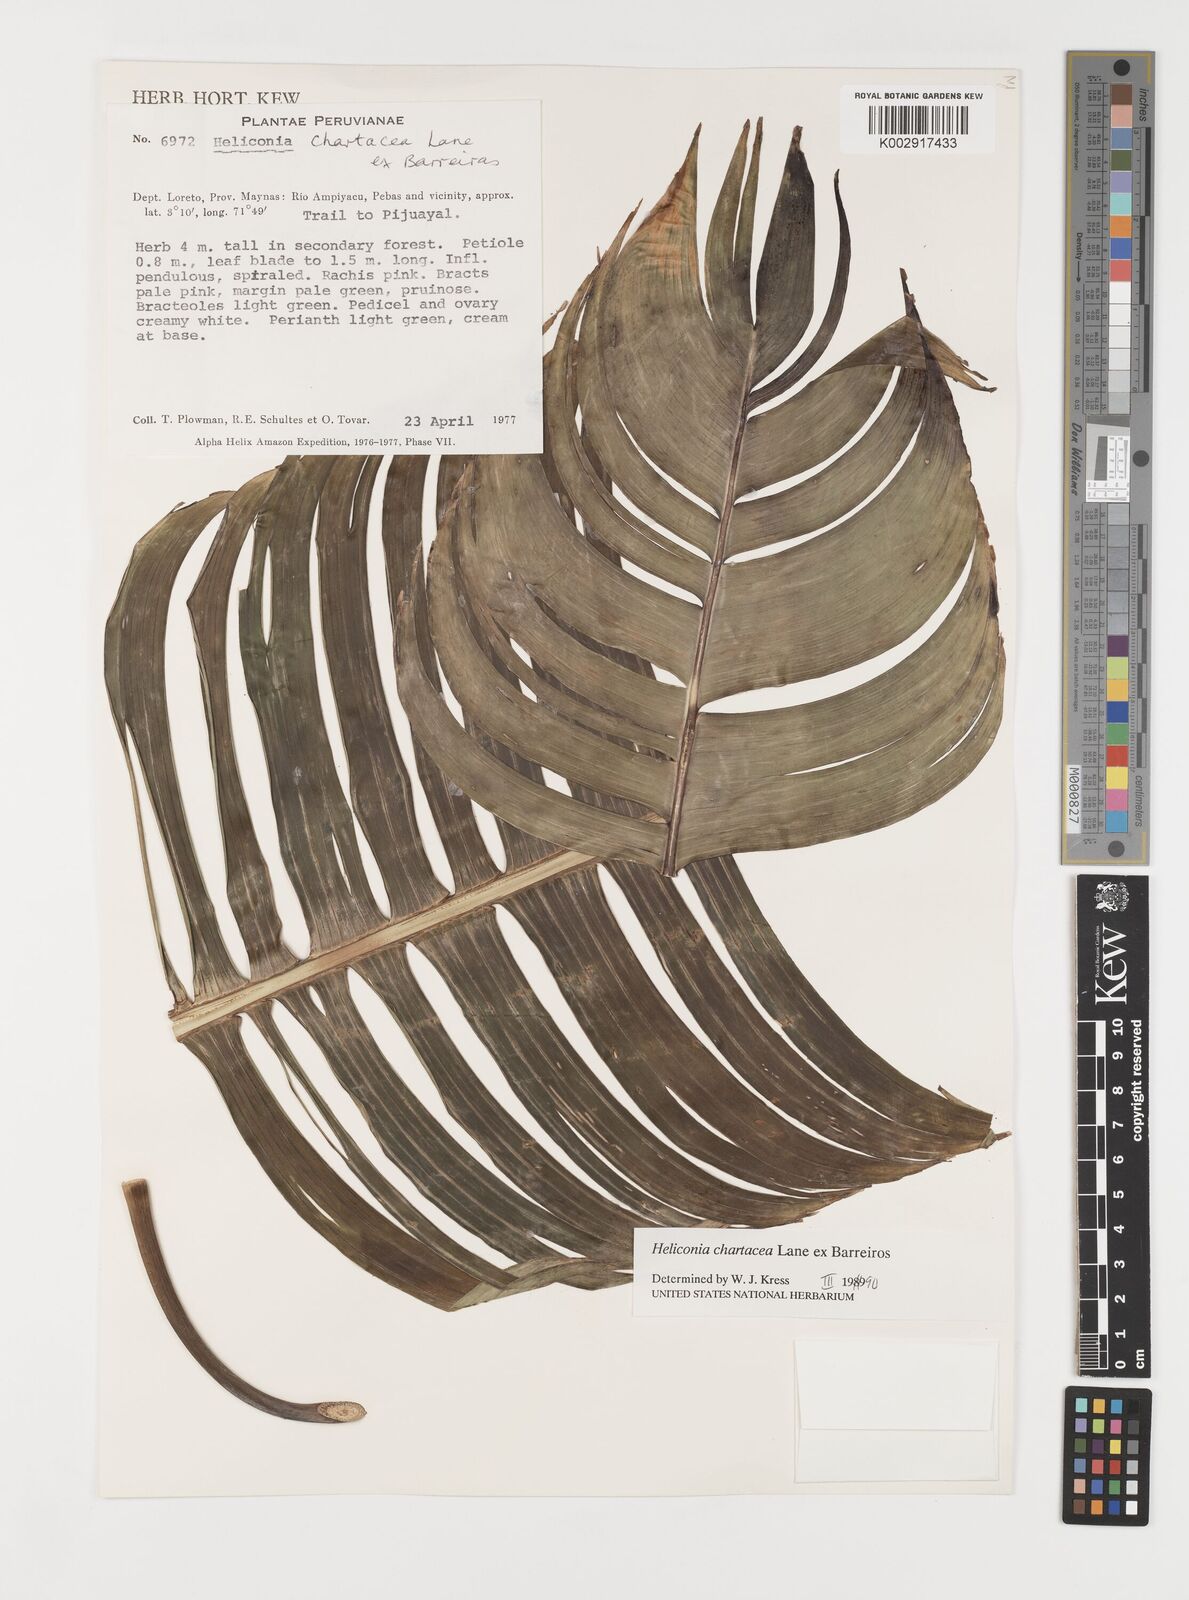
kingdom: Plantae
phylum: Tracheophyta
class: Liliopsida
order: Zingiberales
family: Heliconiaceae
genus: Heliconia
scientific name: Heliconia bourgaeana
